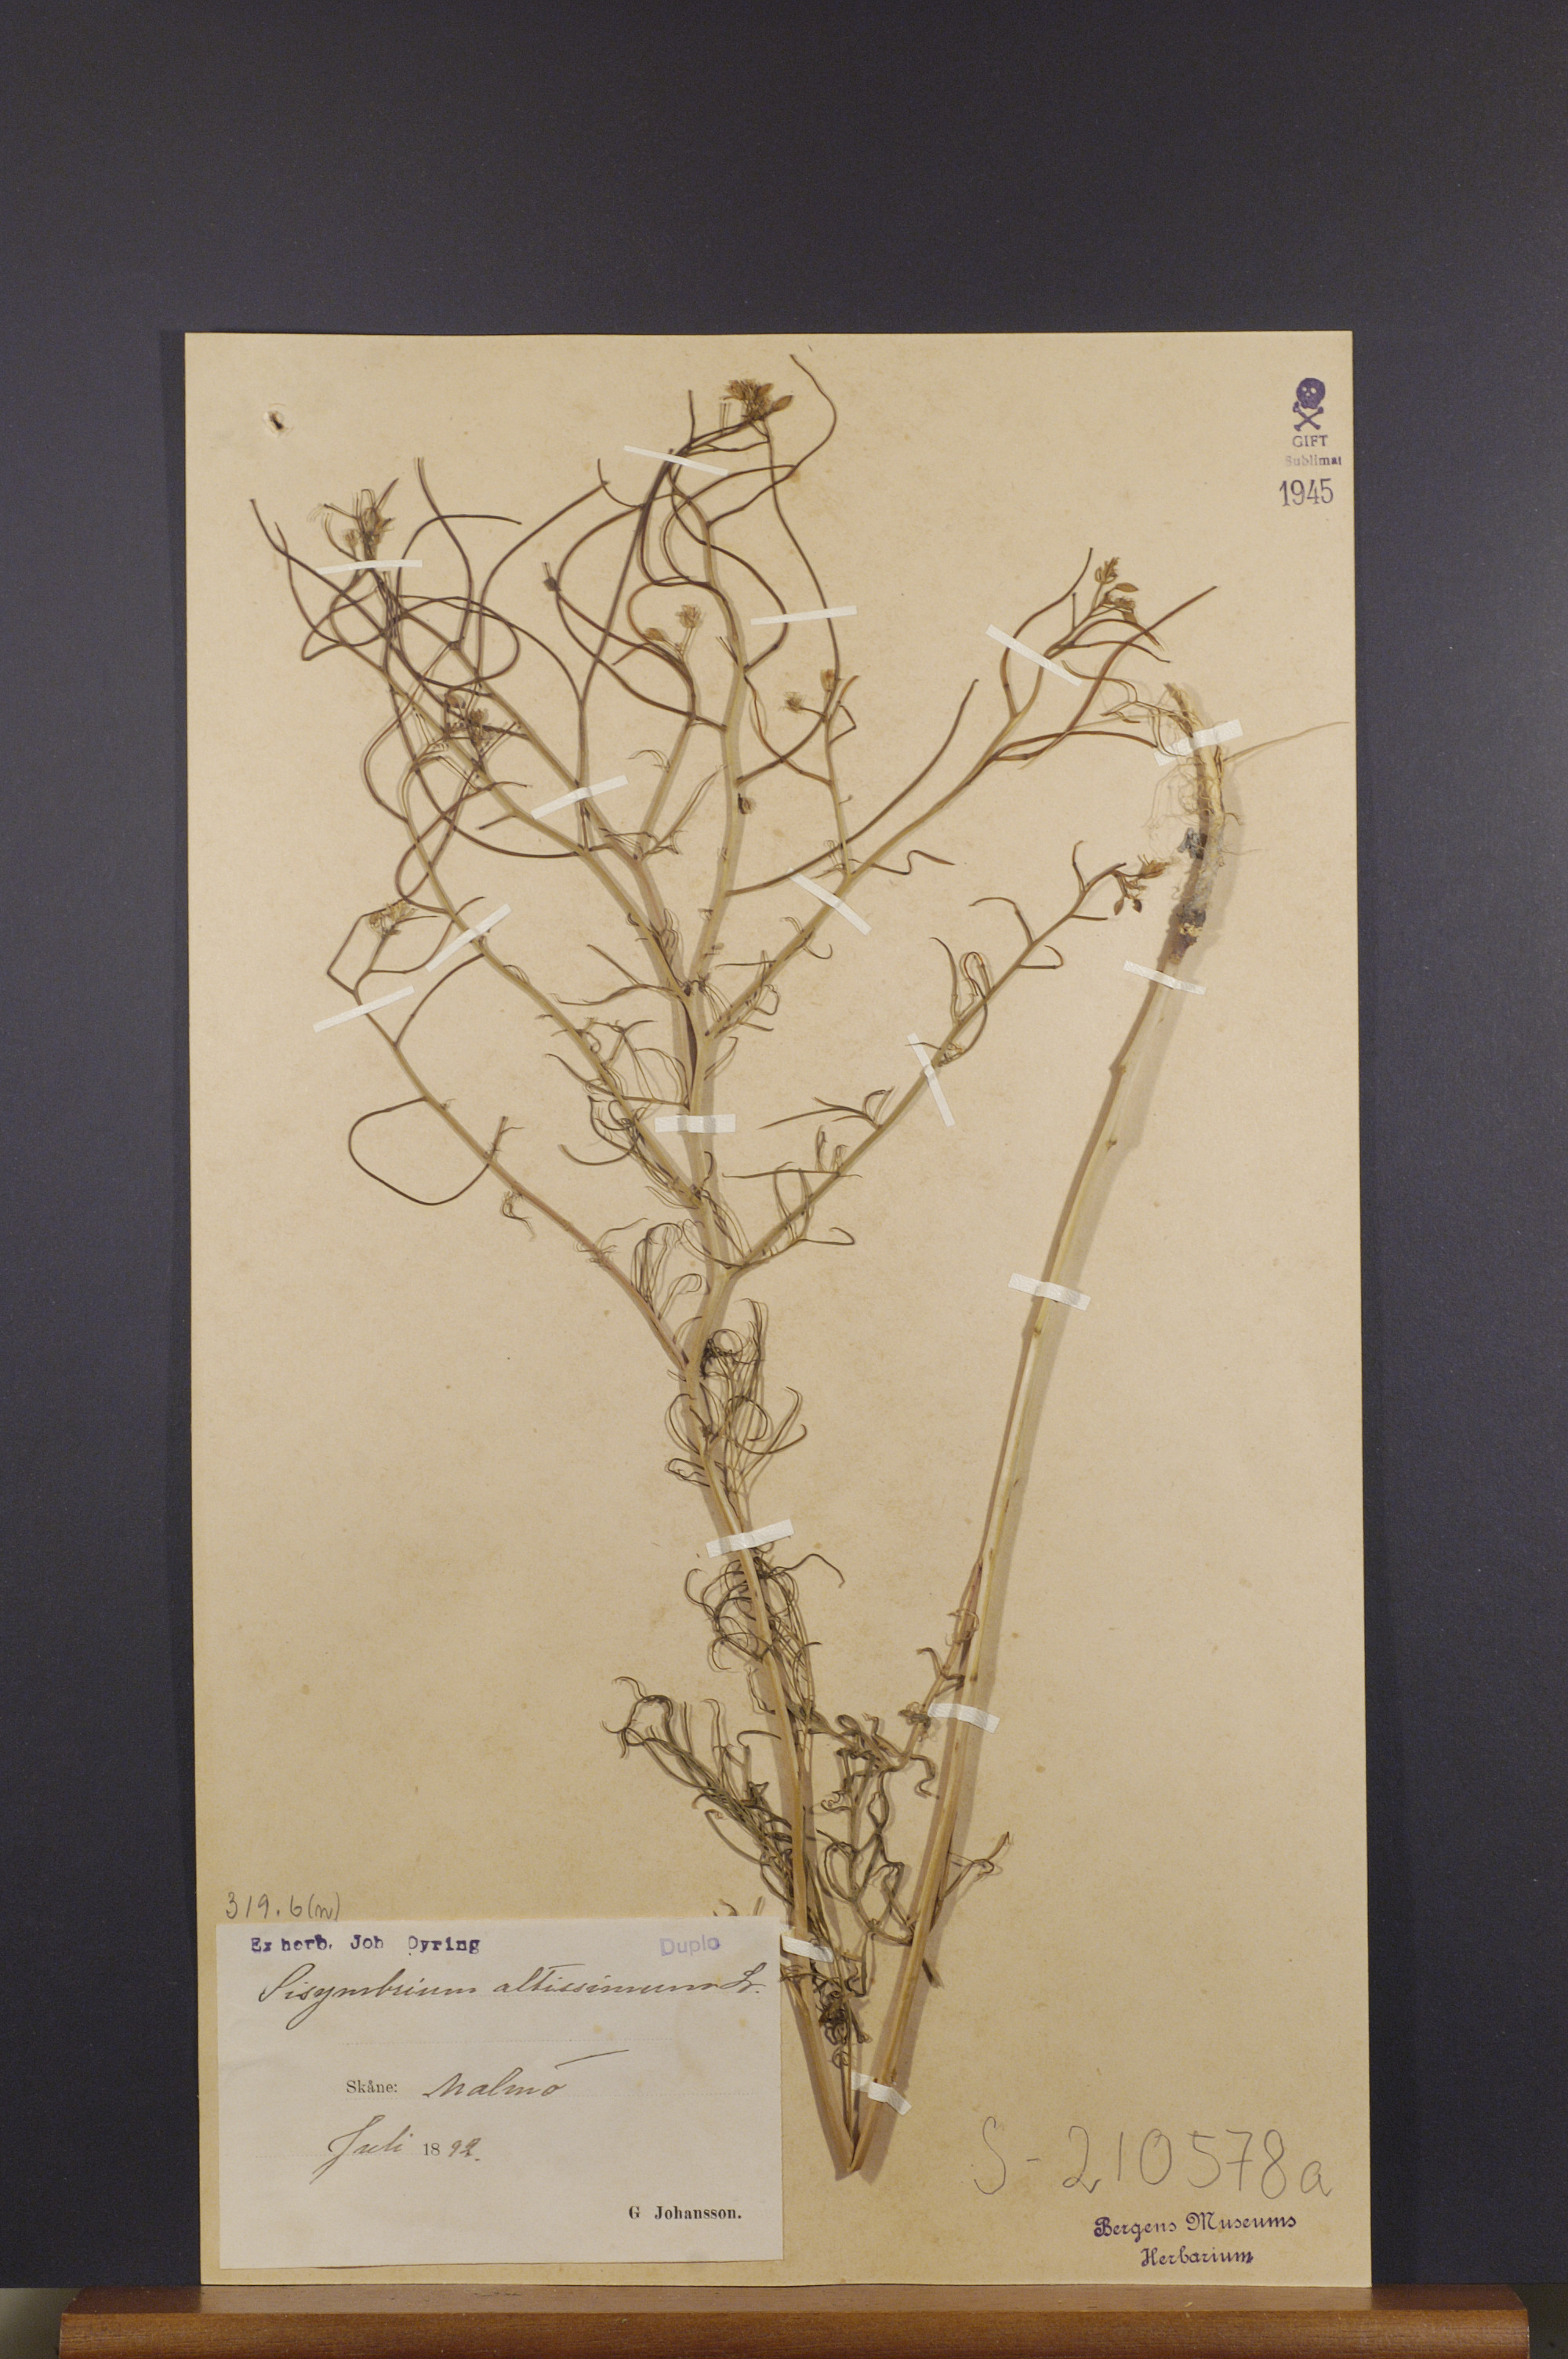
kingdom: Plantae
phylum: Tracheophyta
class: Magnoliopsida
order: Brassicales
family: Brassicaceae
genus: Sisymbrium
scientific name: Sisymbrium altissimum
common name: Tall rocket
